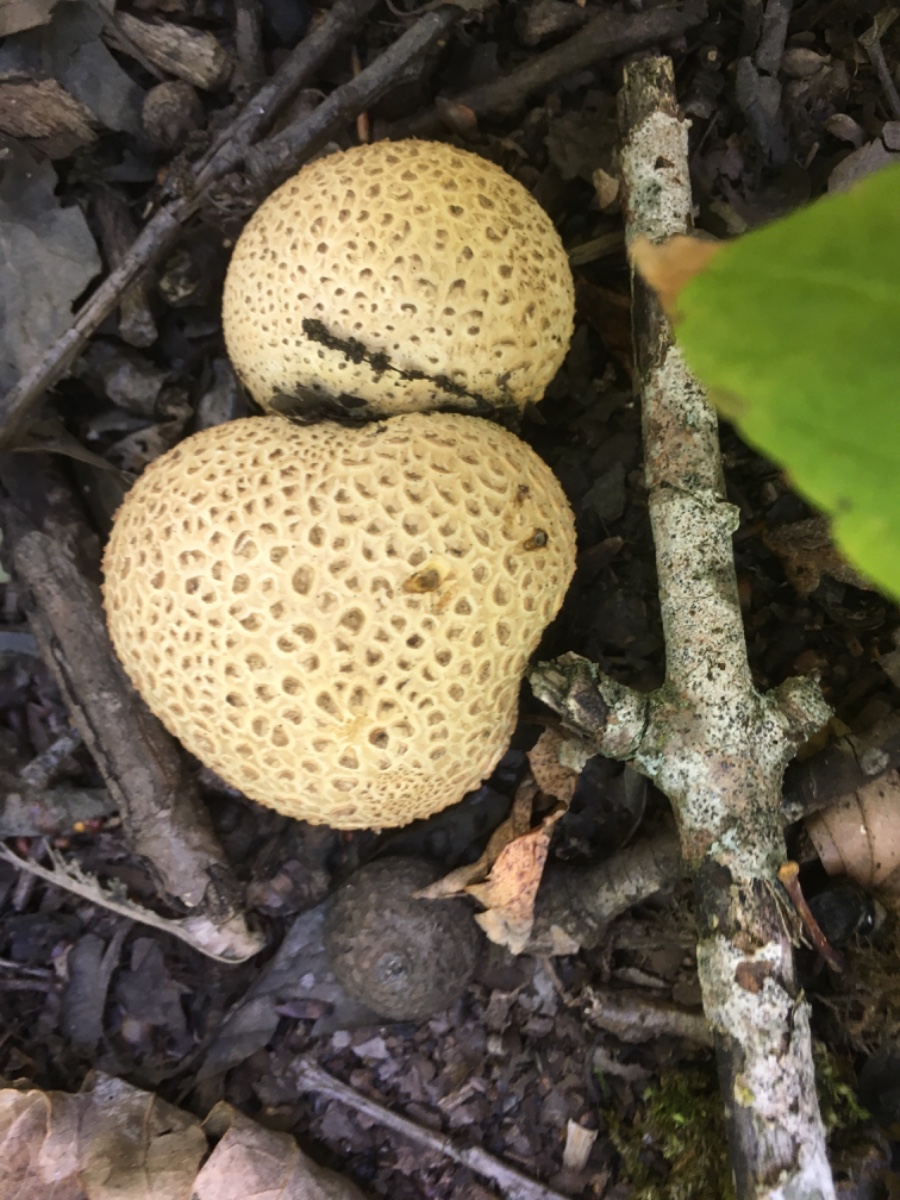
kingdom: Fungi
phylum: Basidiomycota
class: Agaricomycetes
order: Boletales
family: Sclerodermataceae
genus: Scleroderma
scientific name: Scleroderma citrinum
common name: almindelig bruskbold
